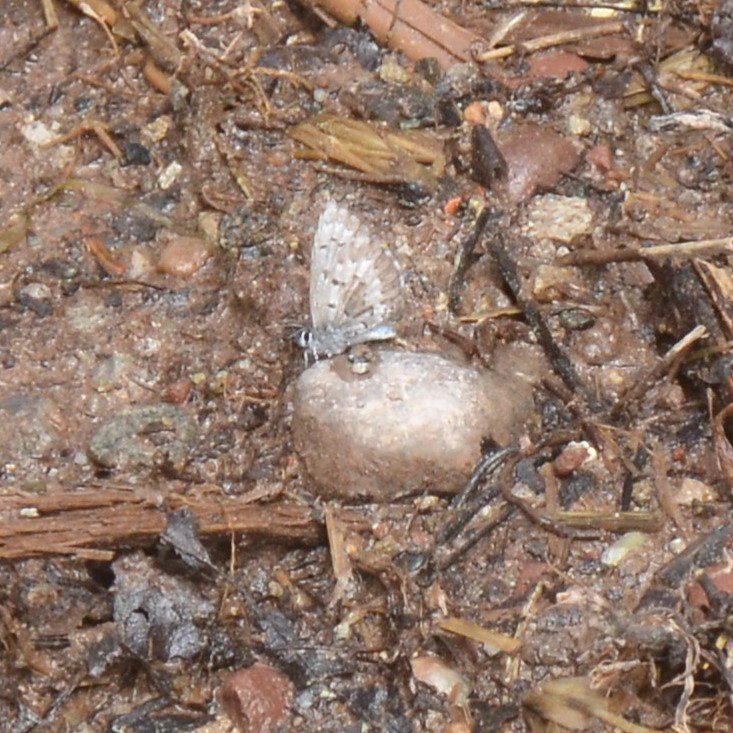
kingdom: Animalia
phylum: Arthropoda
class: Insecta
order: Lepidoptera
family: Lycaenidae
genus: Celastrina
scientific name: Celastrina lucia
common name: Northern Spring Azure
